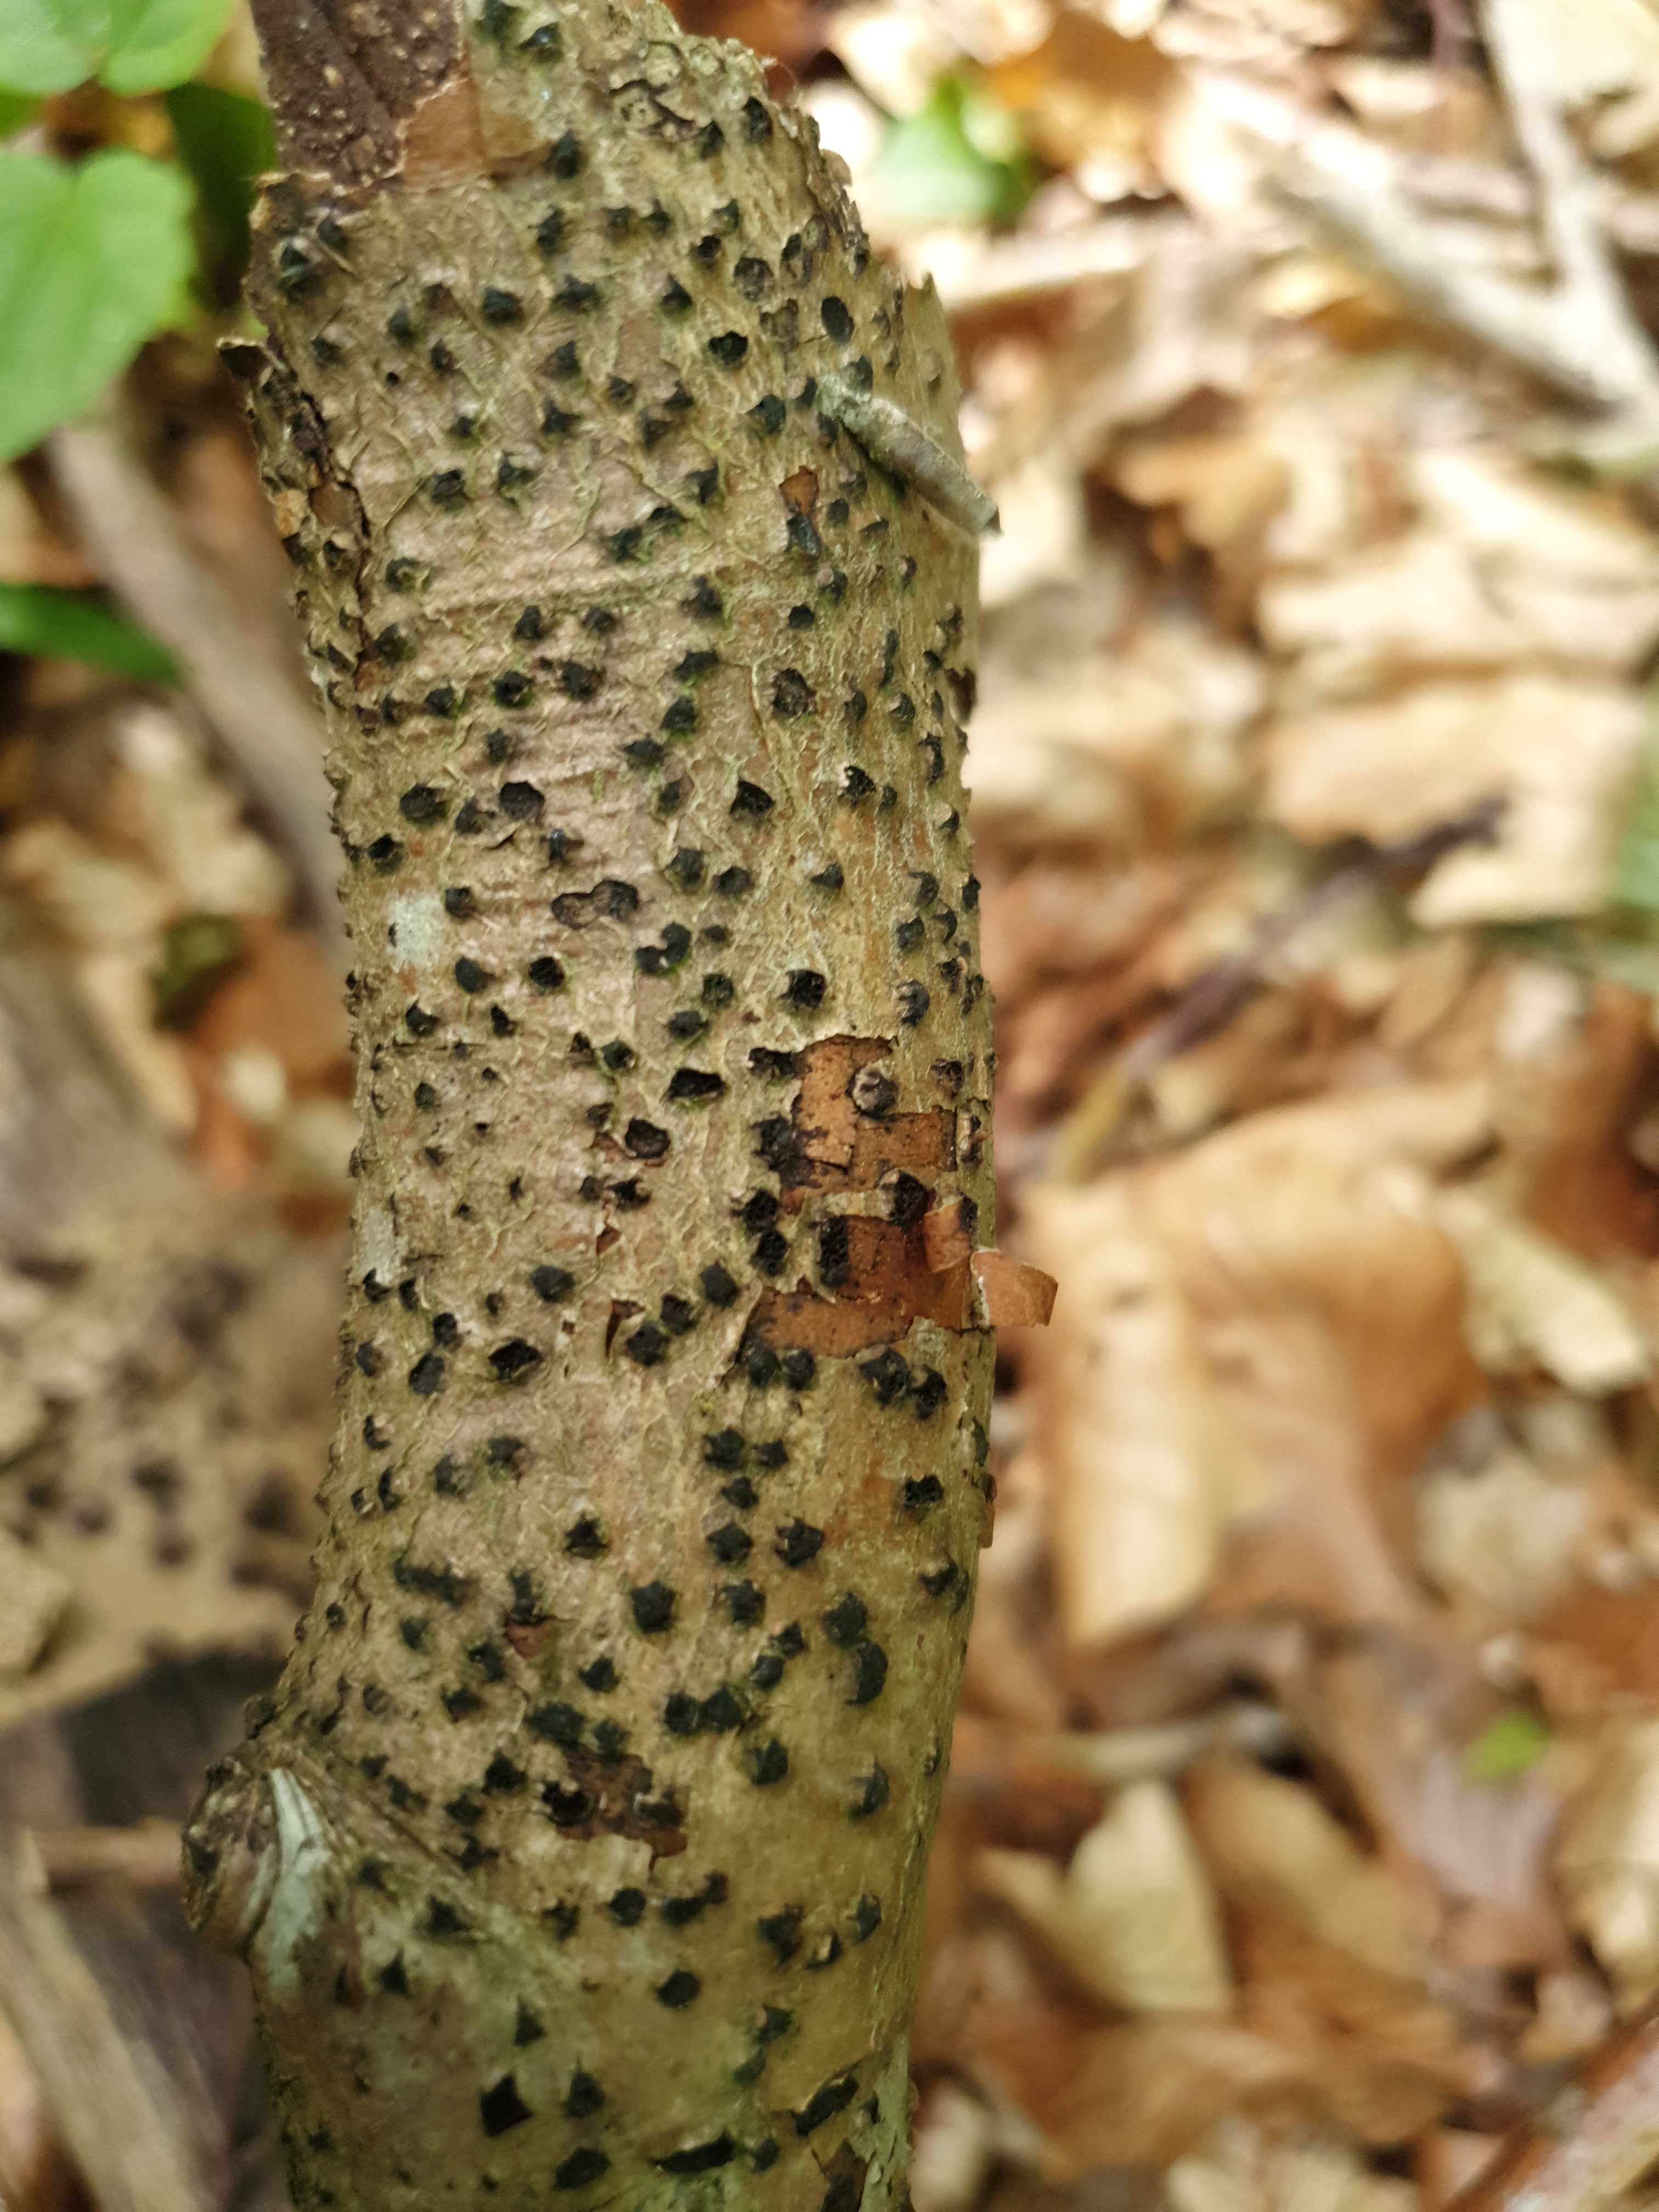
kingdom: Fungi
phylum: Ascomycota
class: Sordariomycetes
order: Xylariales
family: Diatrypaceae
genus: Diatrype
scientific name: Diatrype disciformis
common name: kant-kulskorpe
